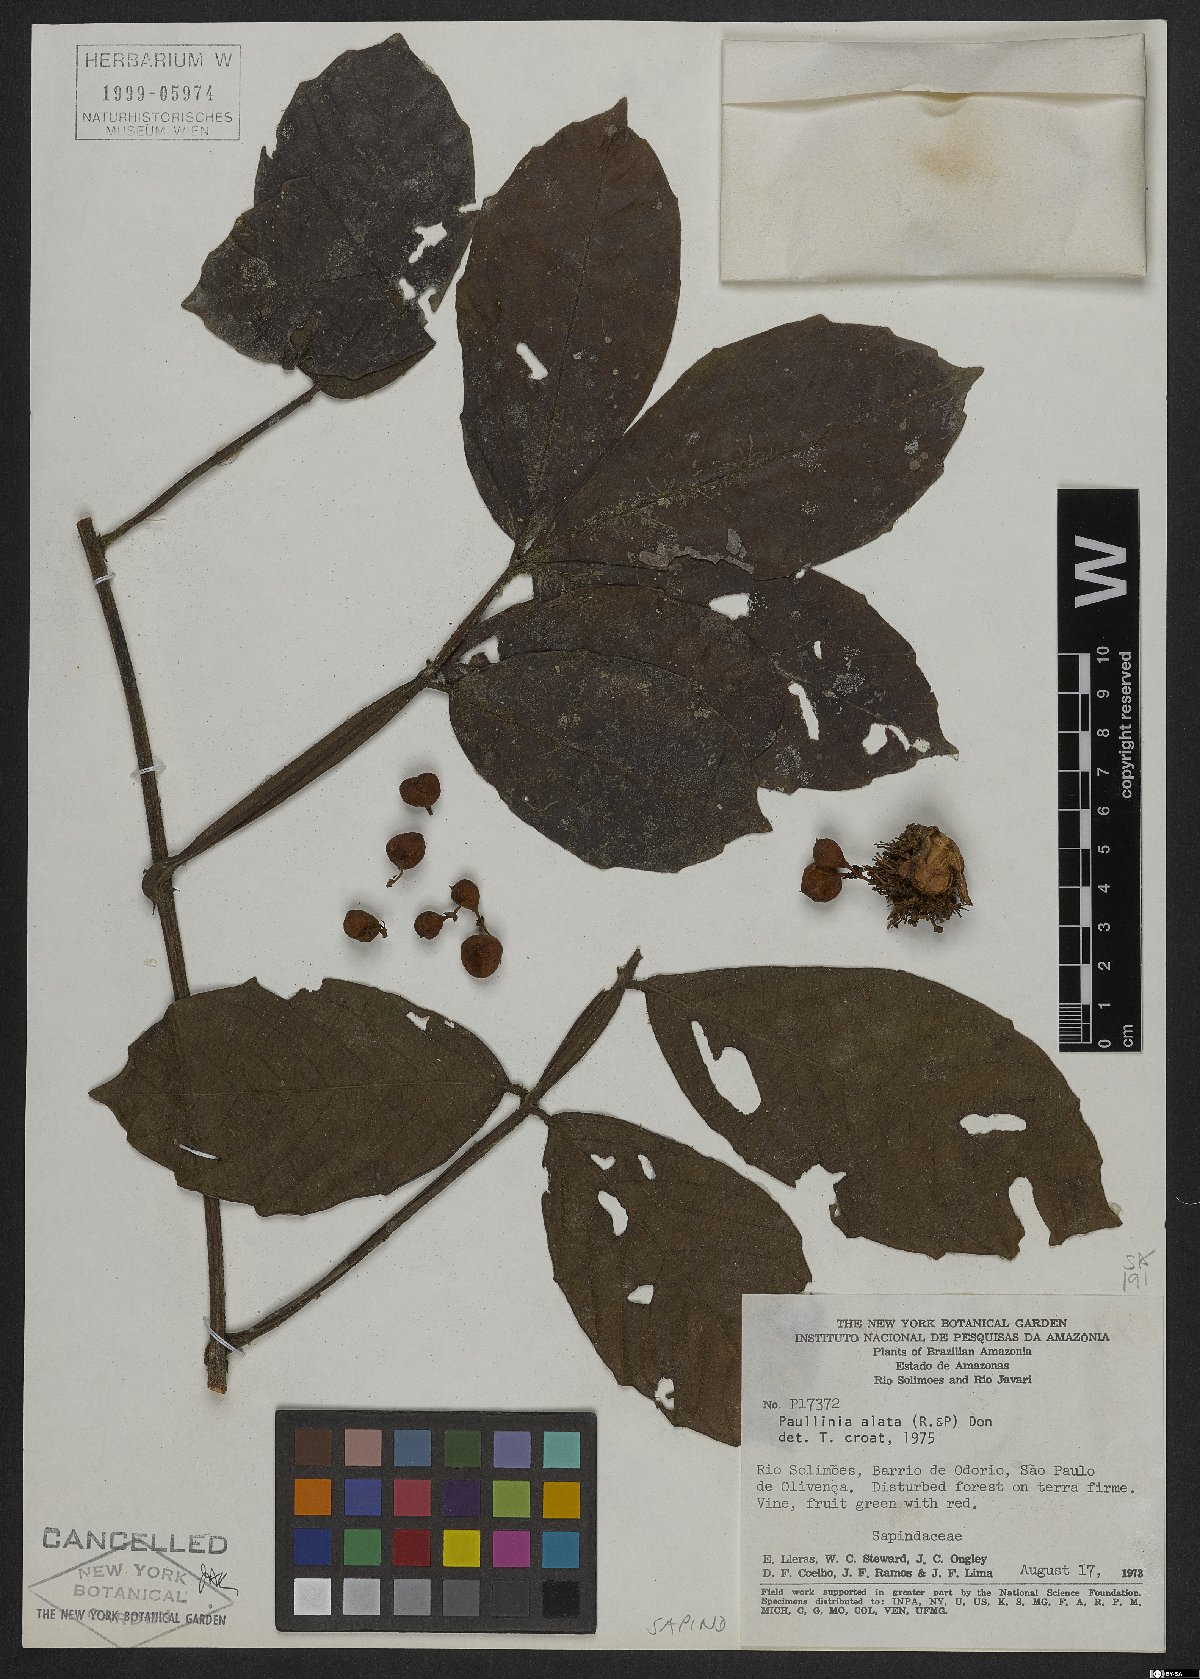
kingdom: Plantae
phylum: Tracheophyta
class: Magnoliopsida
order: Sapindales
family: Sapindaceae
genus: Paullinia
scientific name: Paullinia alata
